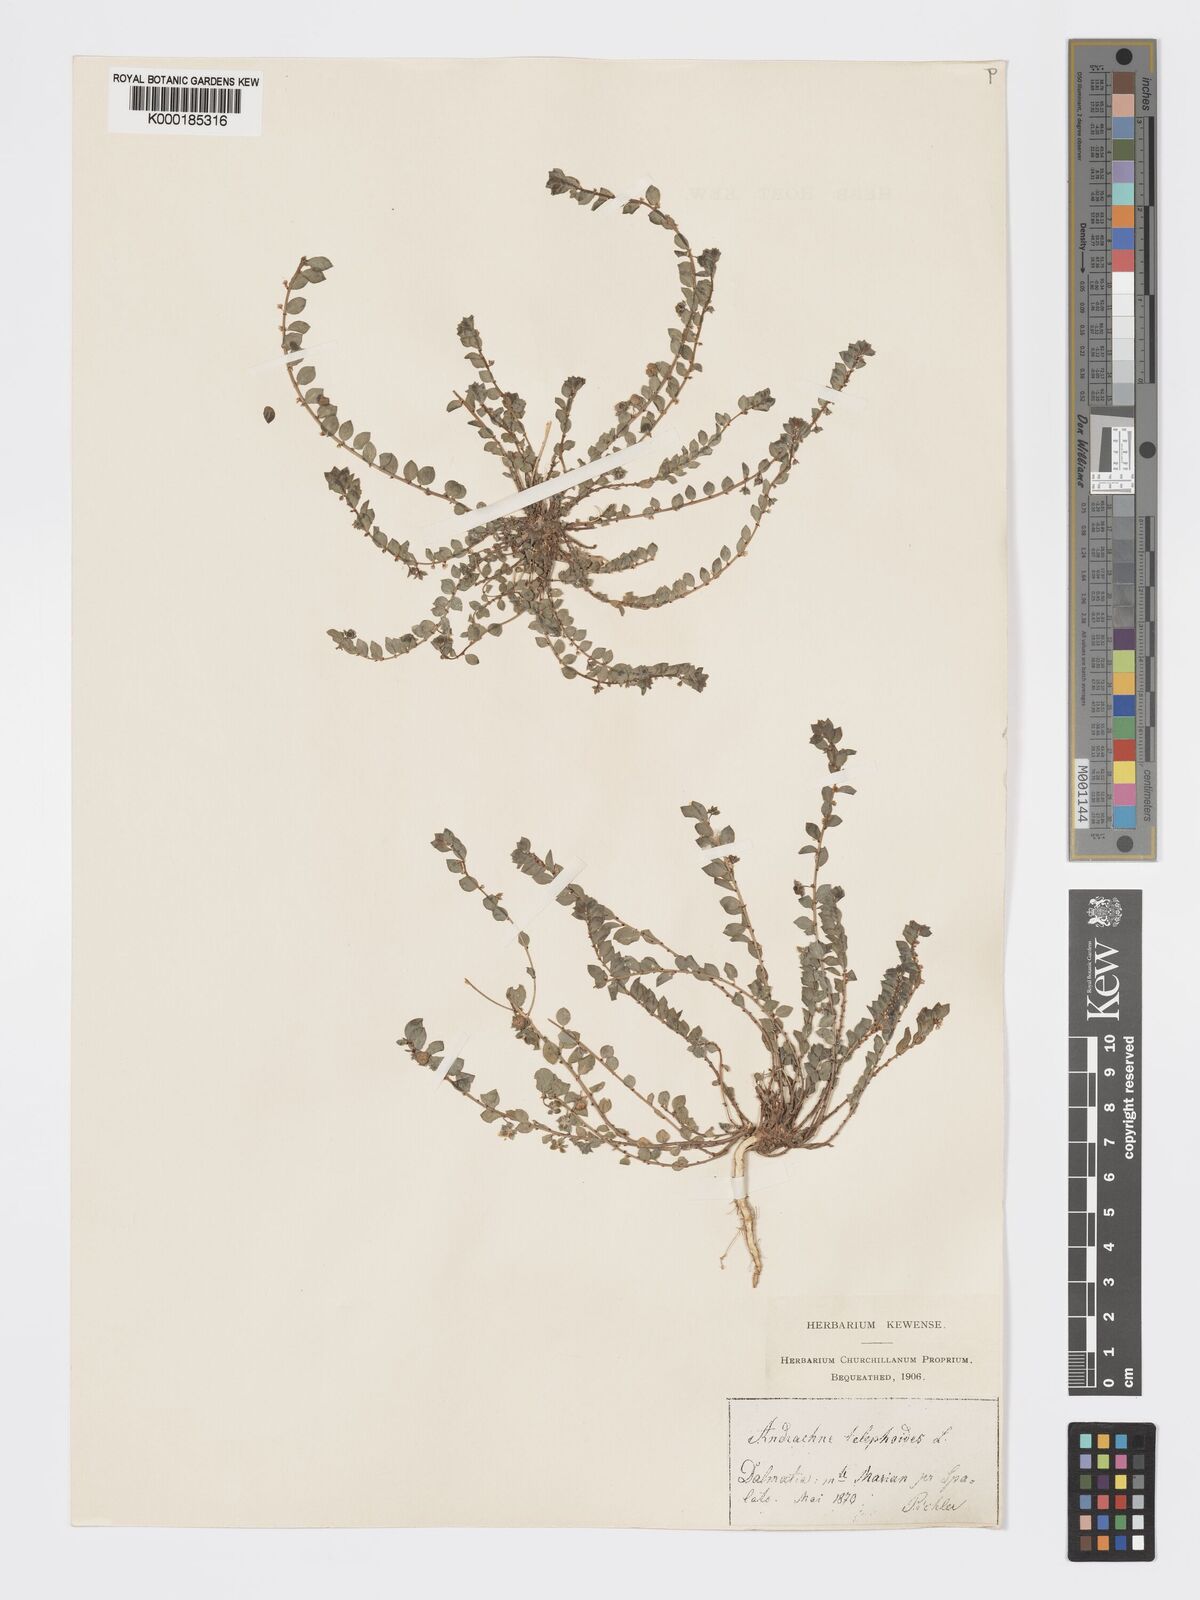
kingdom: Plantae
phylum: Tracheophyta
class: Magnoliopsida
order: Malpighiales
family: Phyllanthaceae
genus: Andrachne
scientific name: Andrachne telephioides
